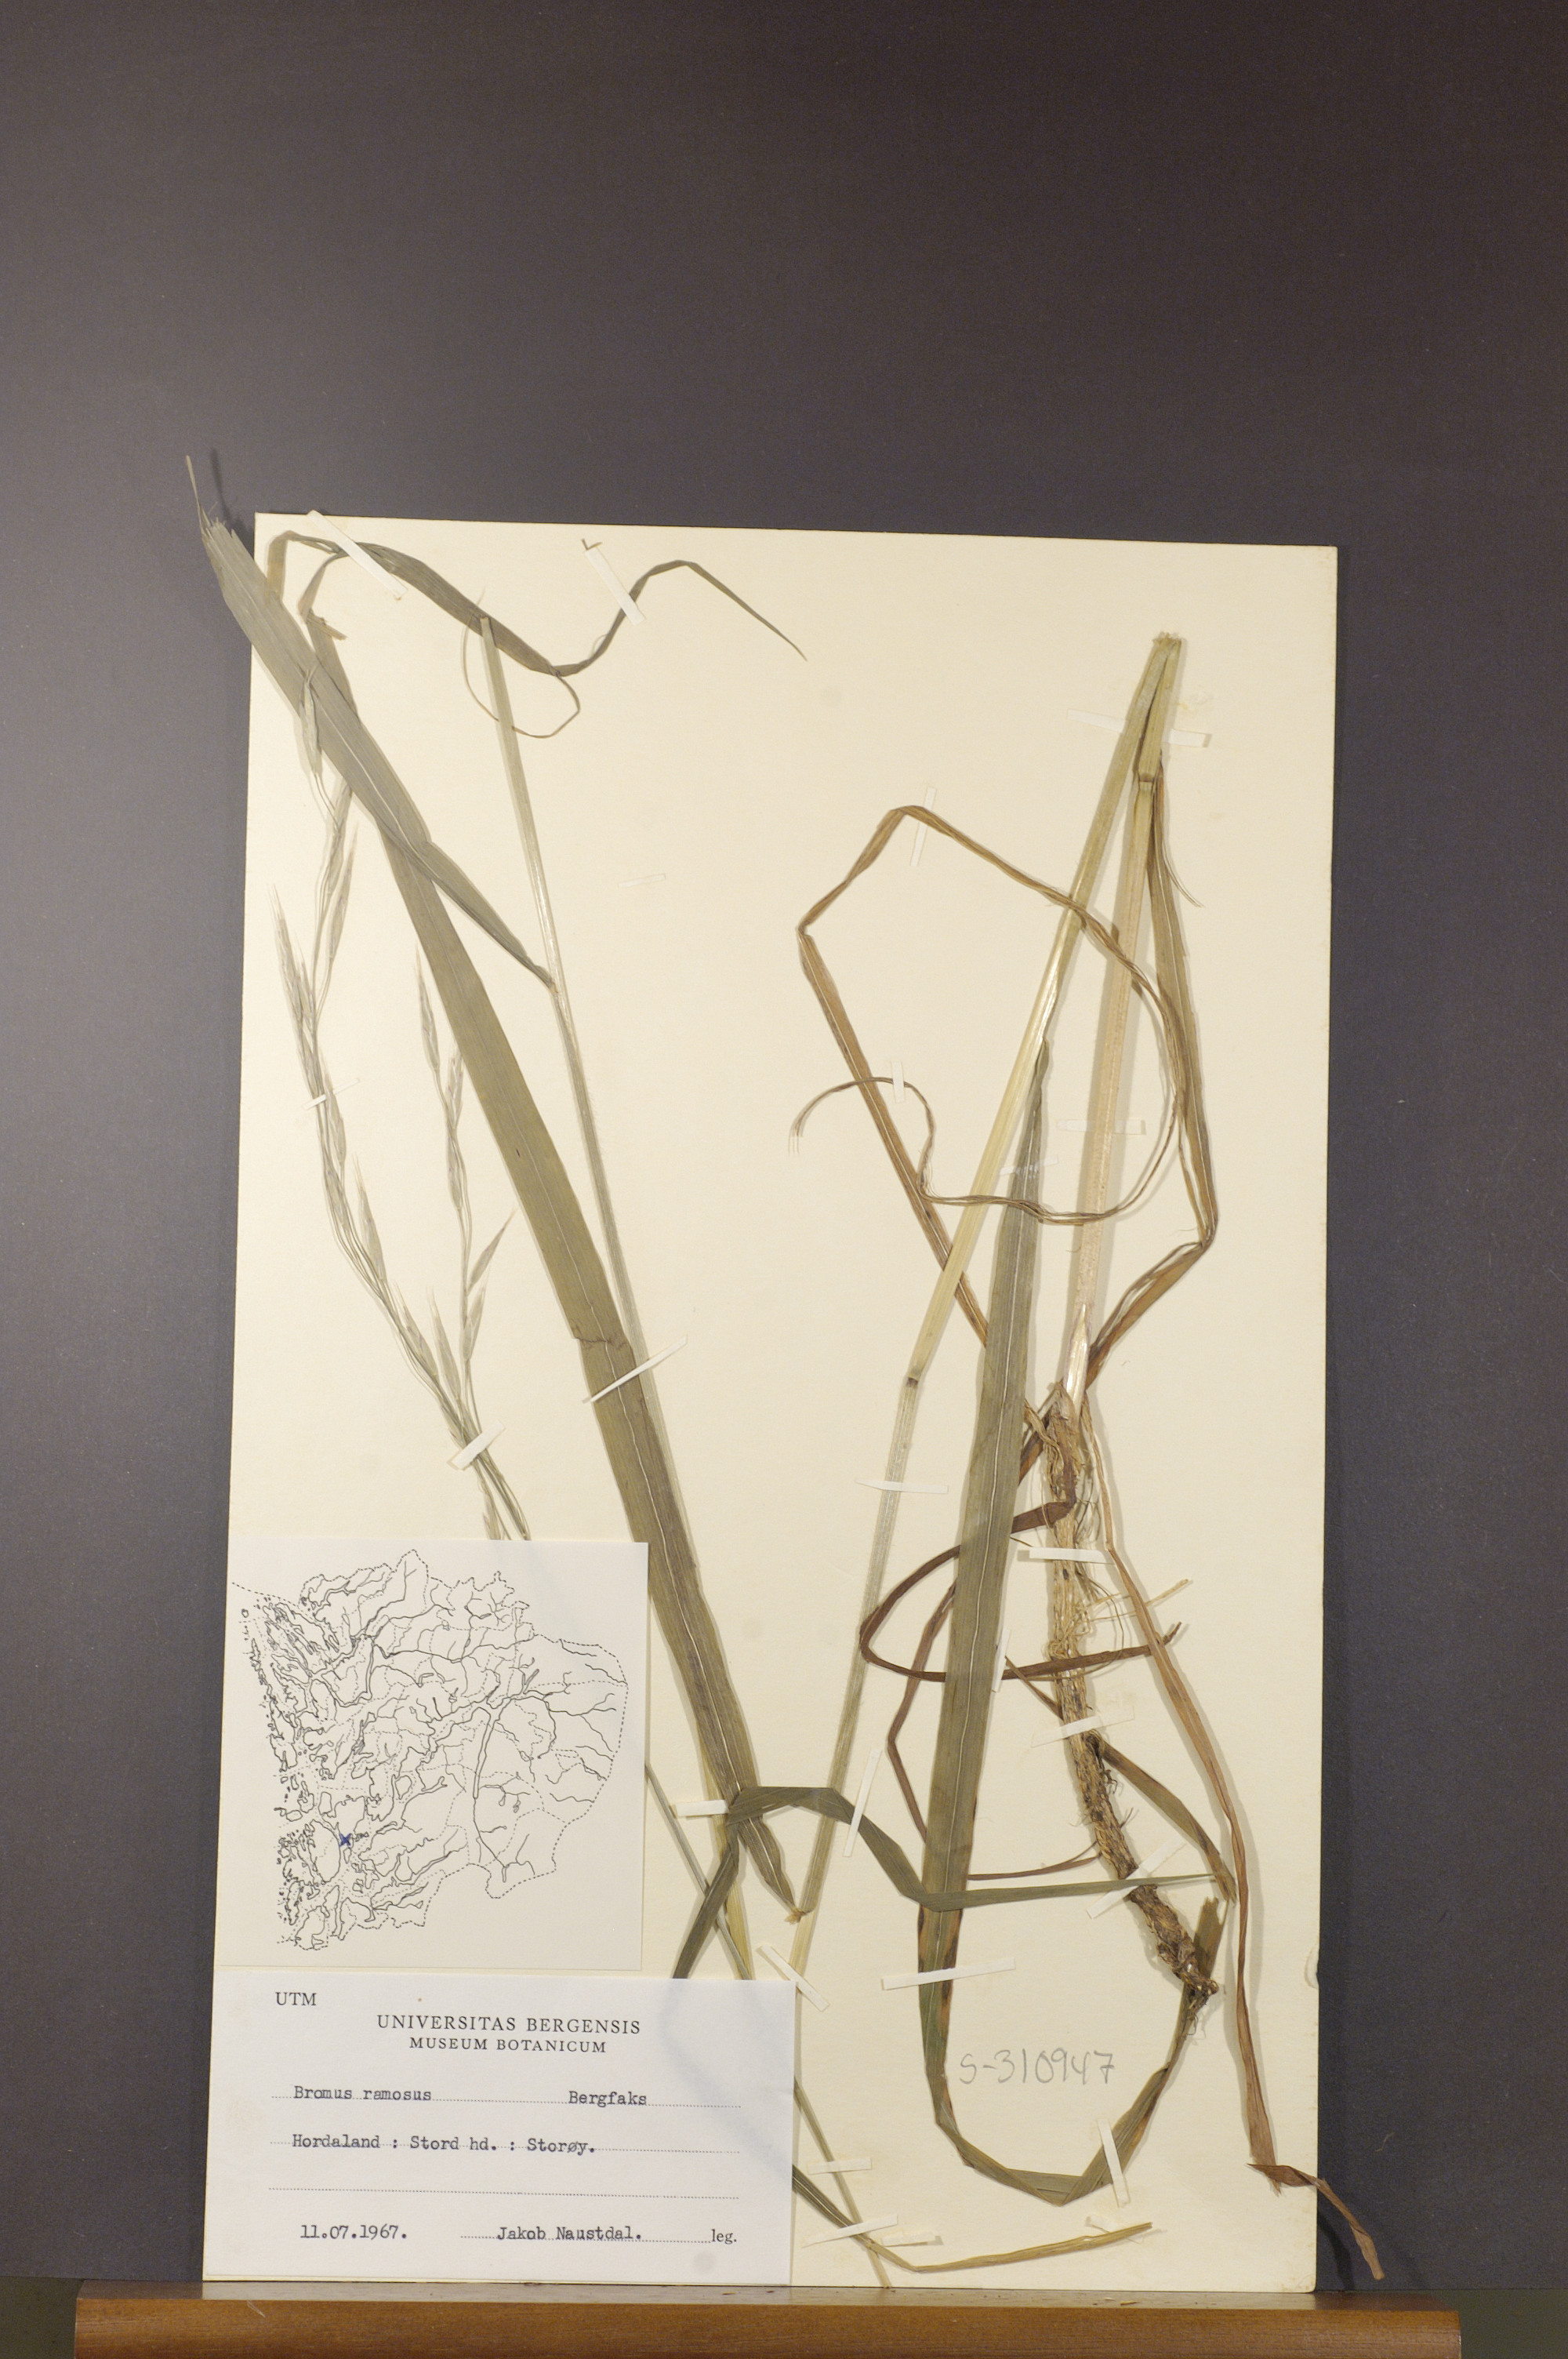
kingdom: Plantae
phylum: Tracheophyta
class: Liliopsida
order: Poales
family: Poaceae
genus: Bromus
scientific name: Bromus ramosus
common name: Hairy brome
